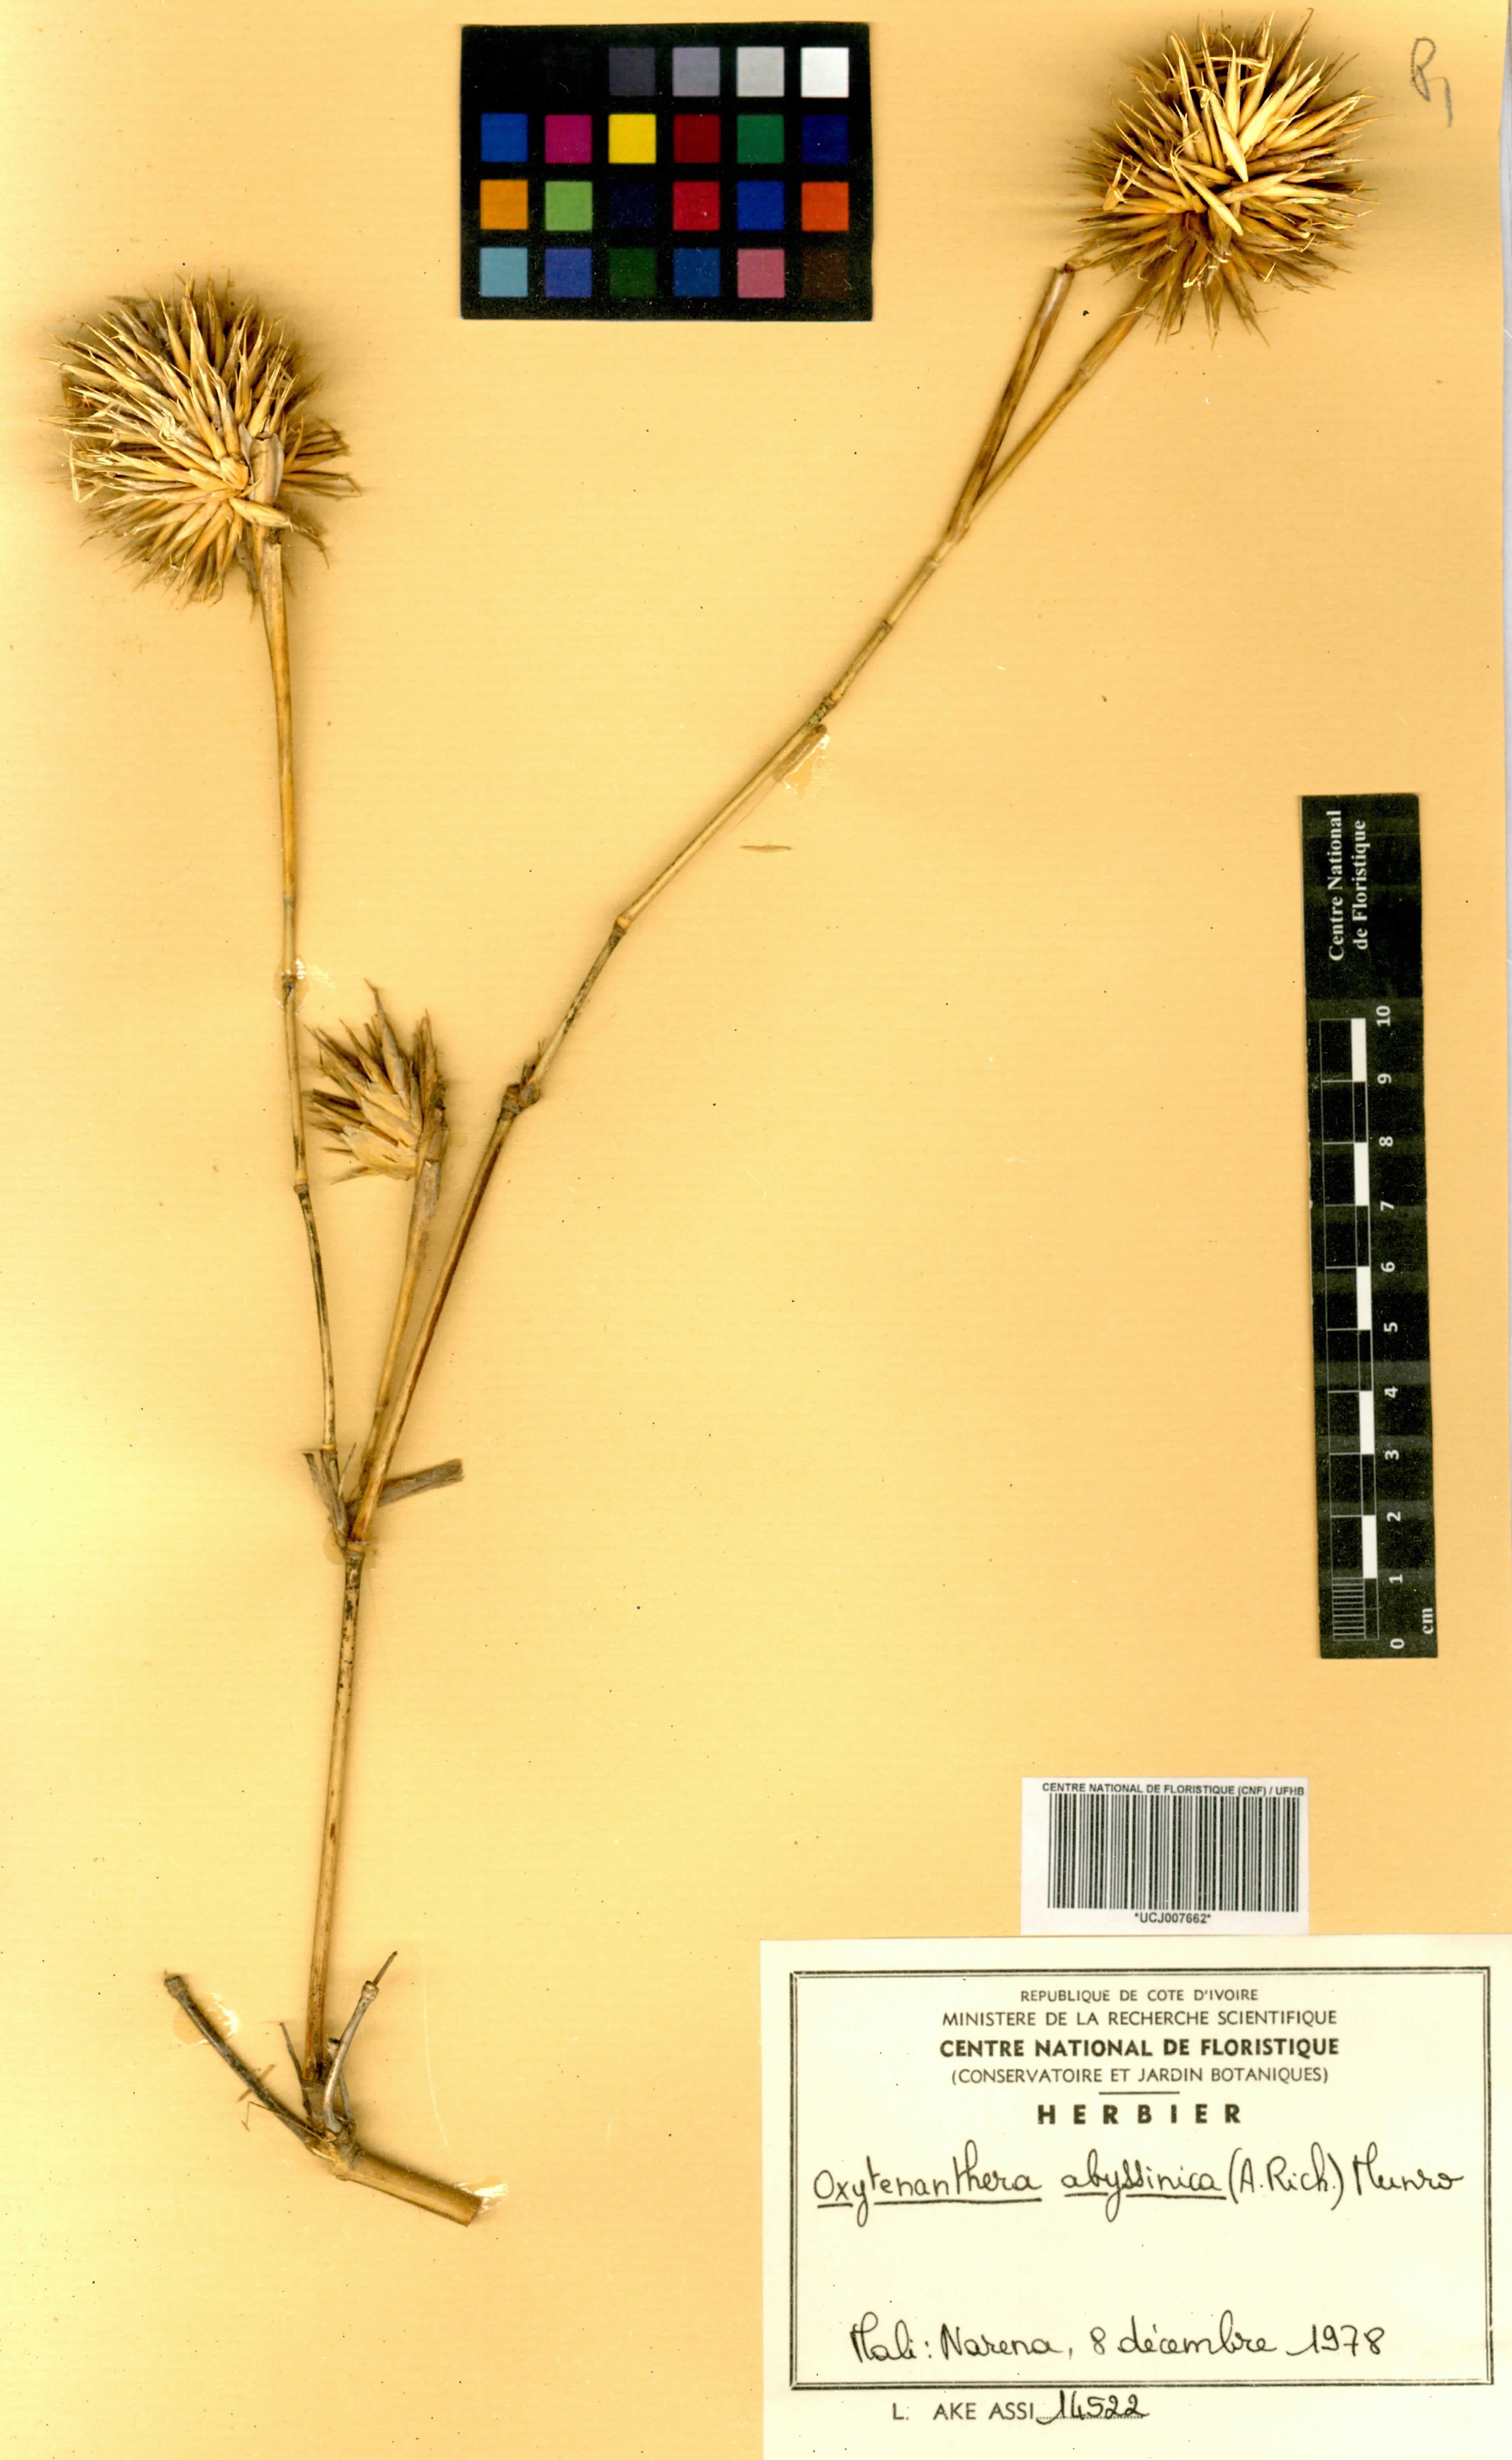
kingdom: Plantae
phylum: Tracheophyta
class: Liliopsida
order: Poales
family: Poaceae
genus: Oxytenanthera
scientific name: Oxytenanthera abyssinica
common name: Wine bamboo
